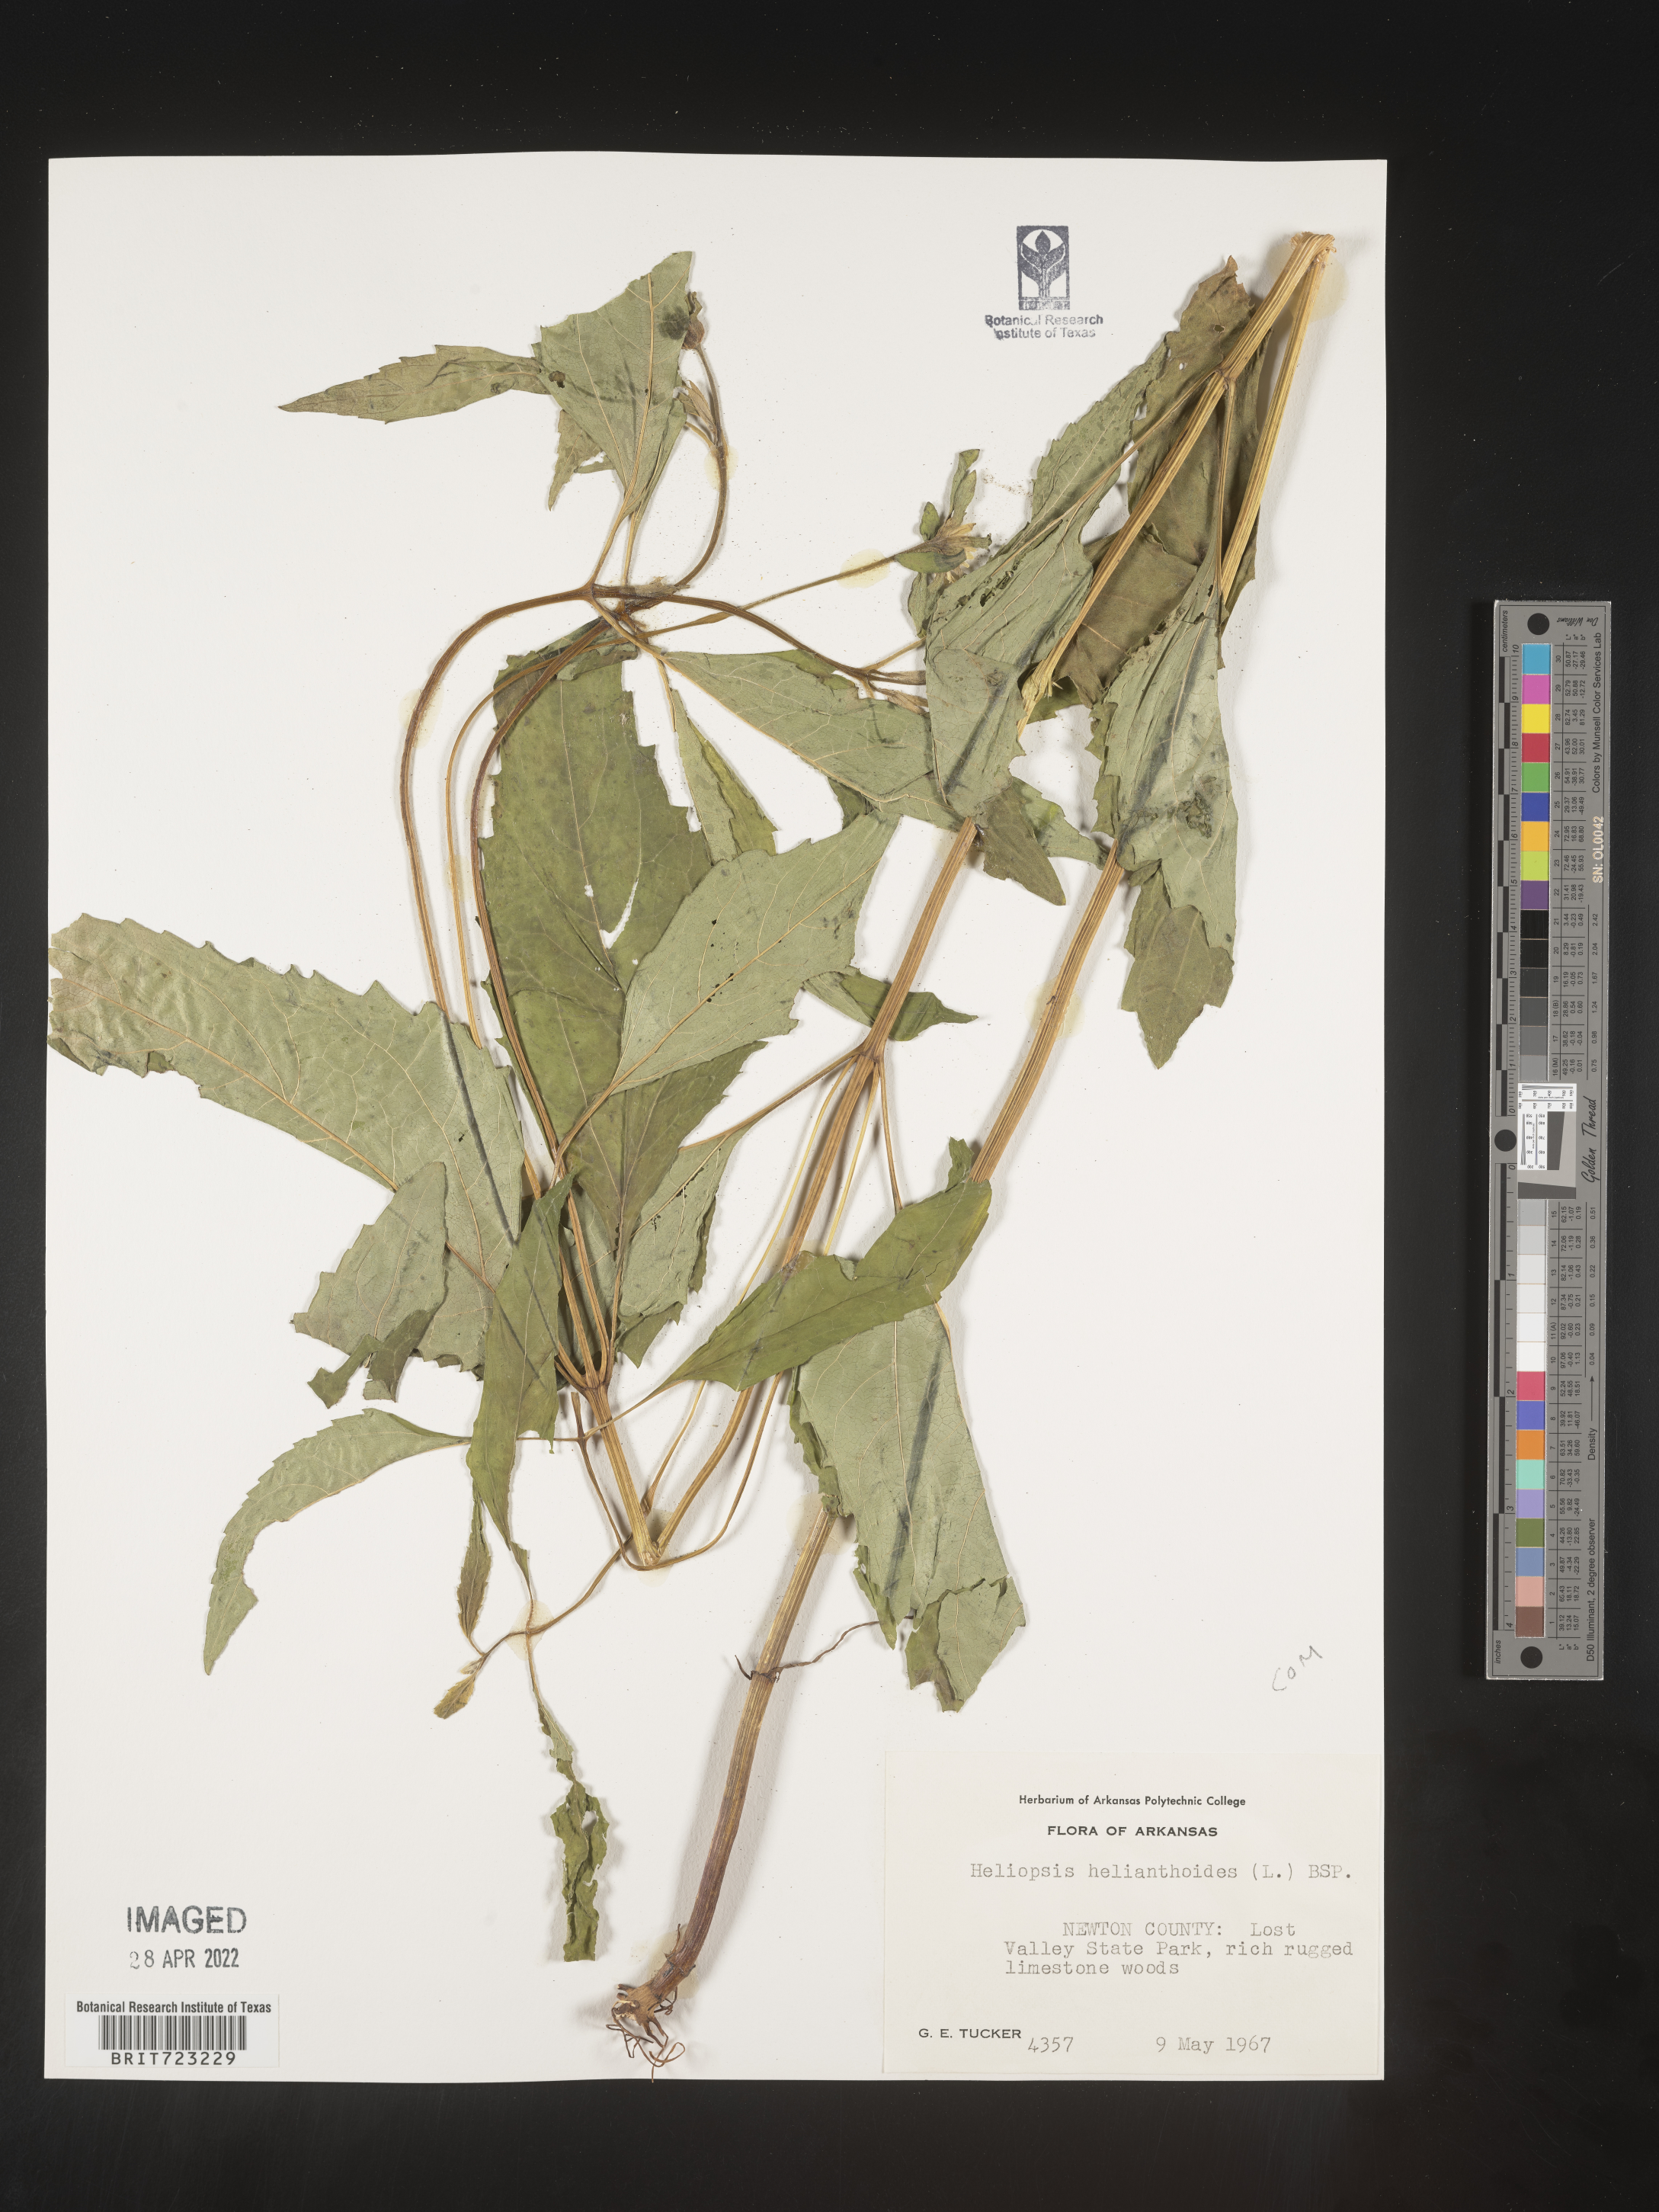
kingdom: Plantae
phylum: Tracheophyta
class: Magnoliopsida
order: Asterales
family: Asteraceae
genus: Heliopsis
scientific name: Heliopsis helianthoides
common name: False sunflower
